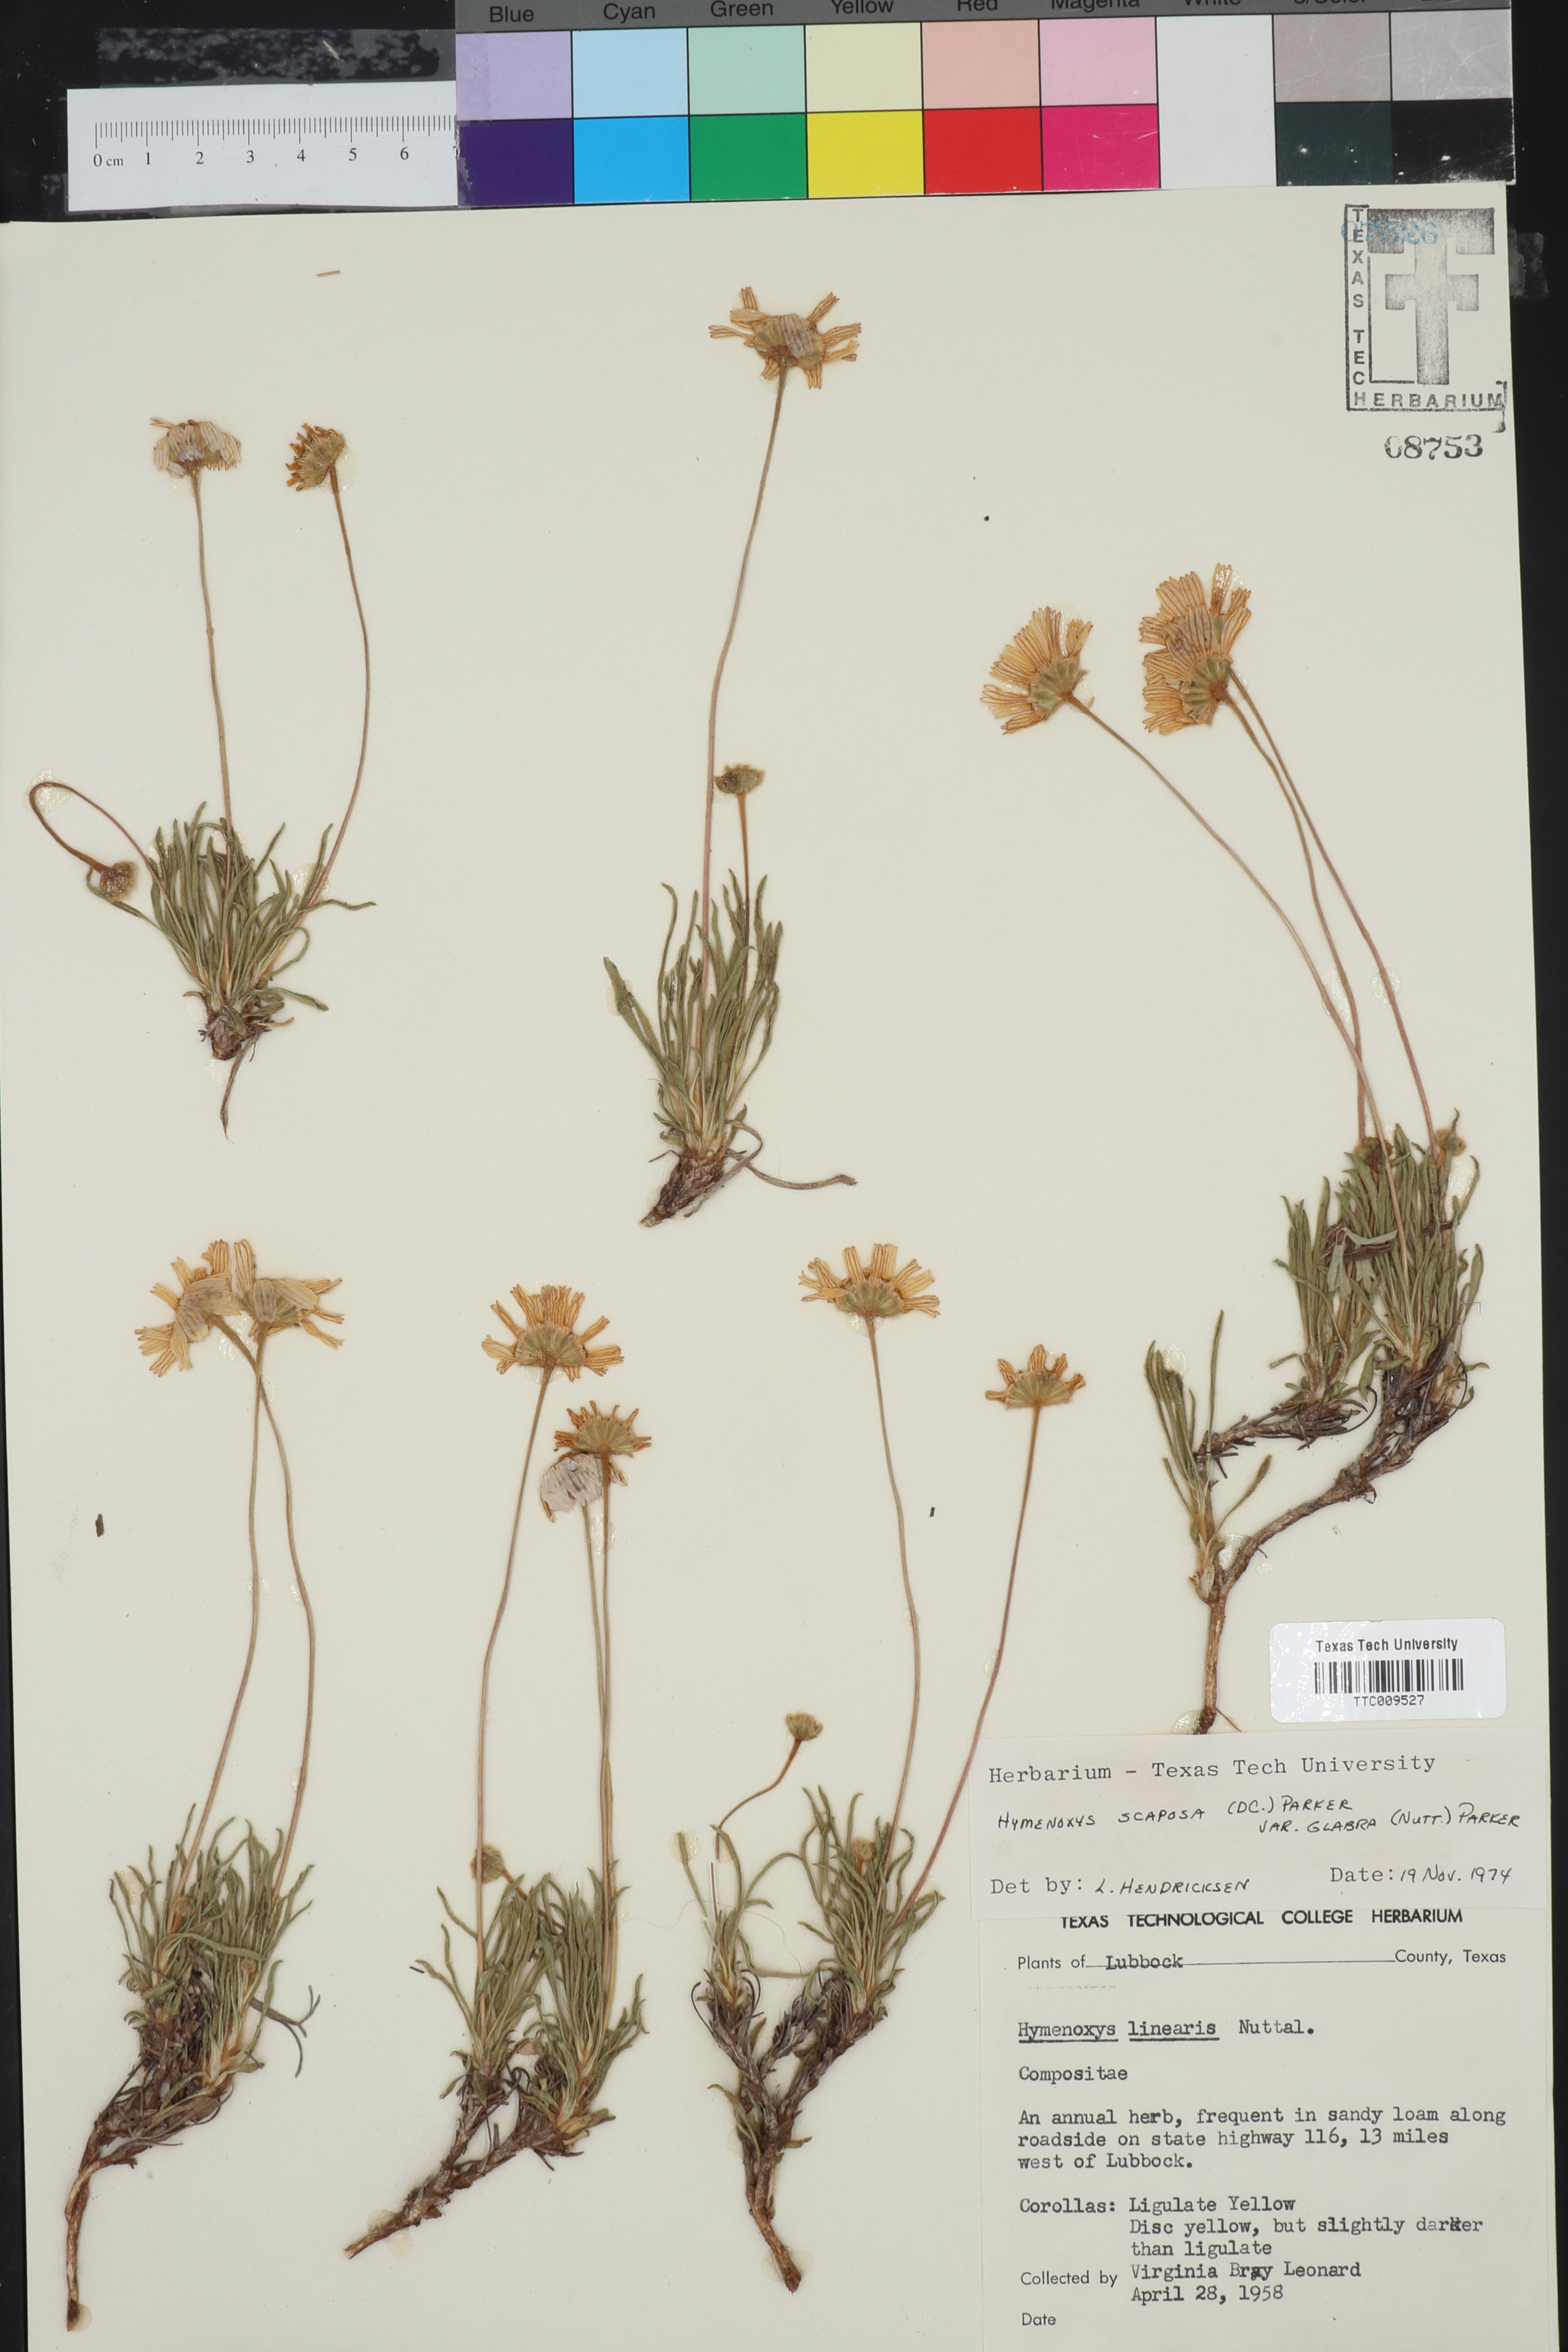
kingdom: Plantae
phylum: Tracheophyta
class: Magnoliopsida
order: Asterales
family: Asteraceae
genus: Tetraneuris
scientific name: Tetraneuris scaposa
